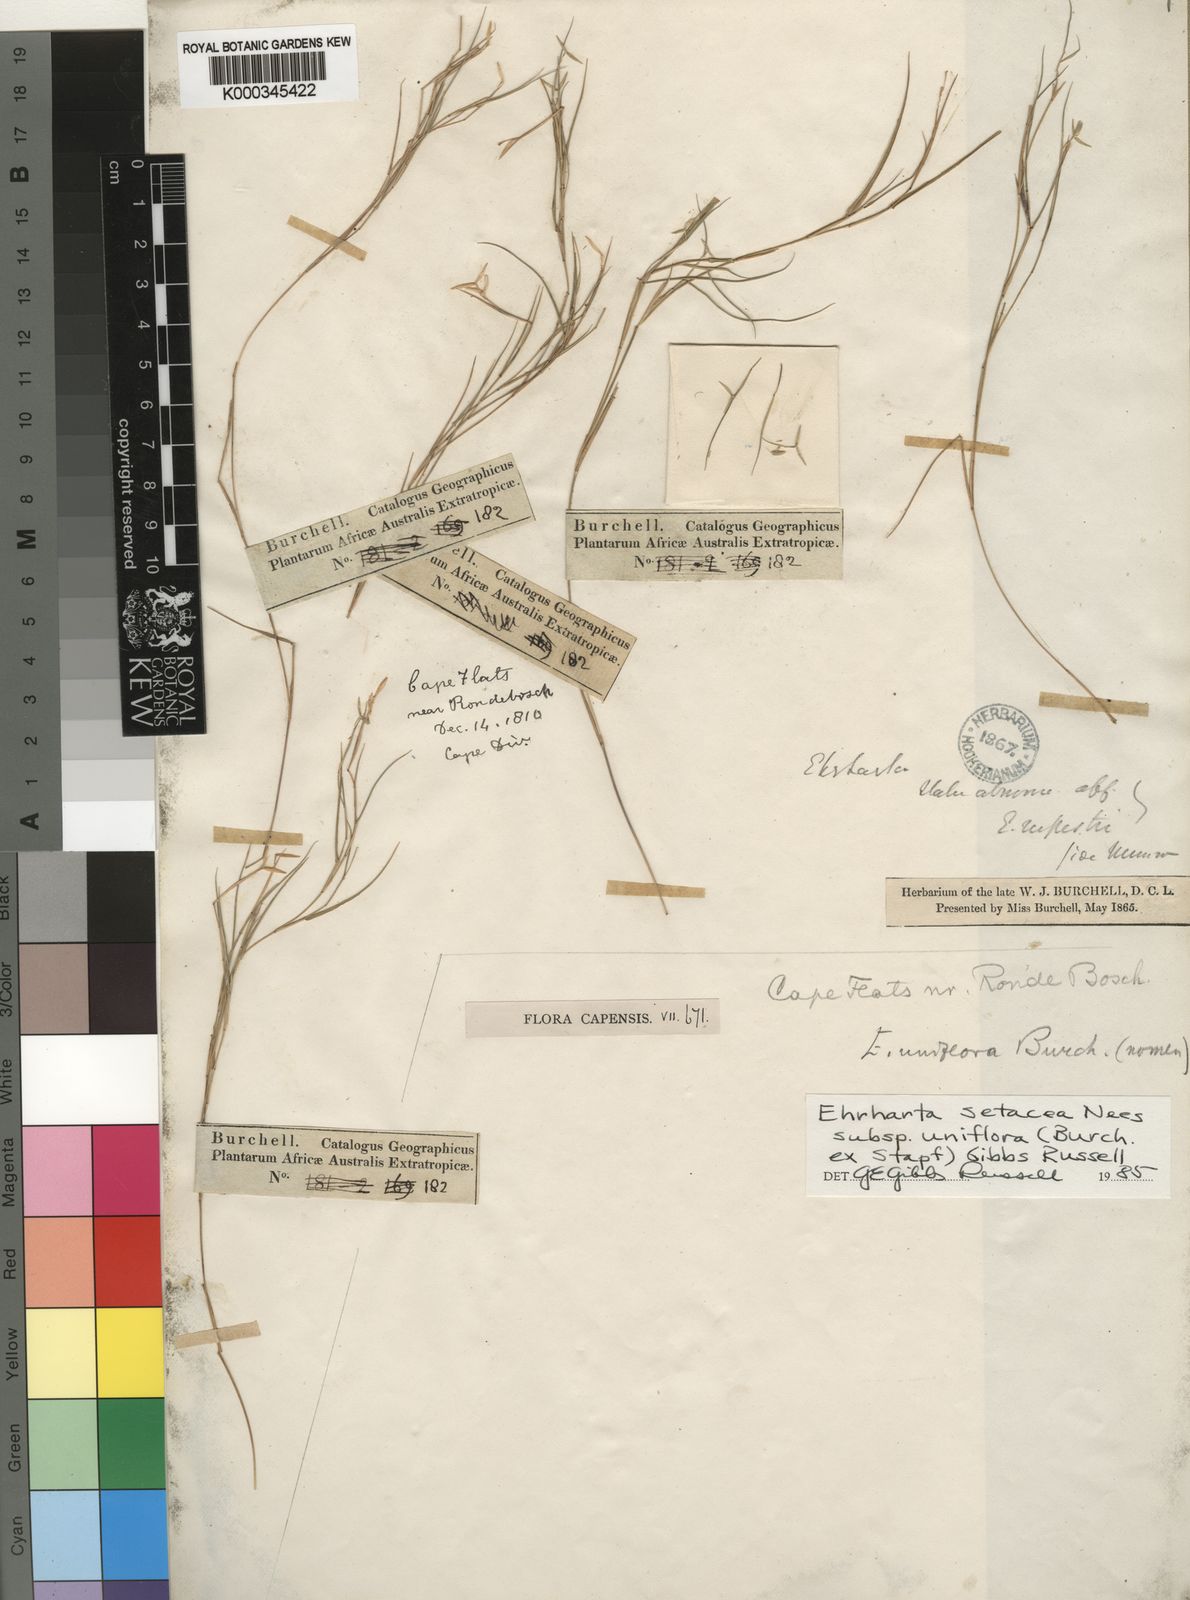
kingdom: Plantae
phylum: Tracheophyta
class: Liliopsida
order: Poales
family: Poaceae
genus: Ehrharta
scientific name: Ehrharta setacea
